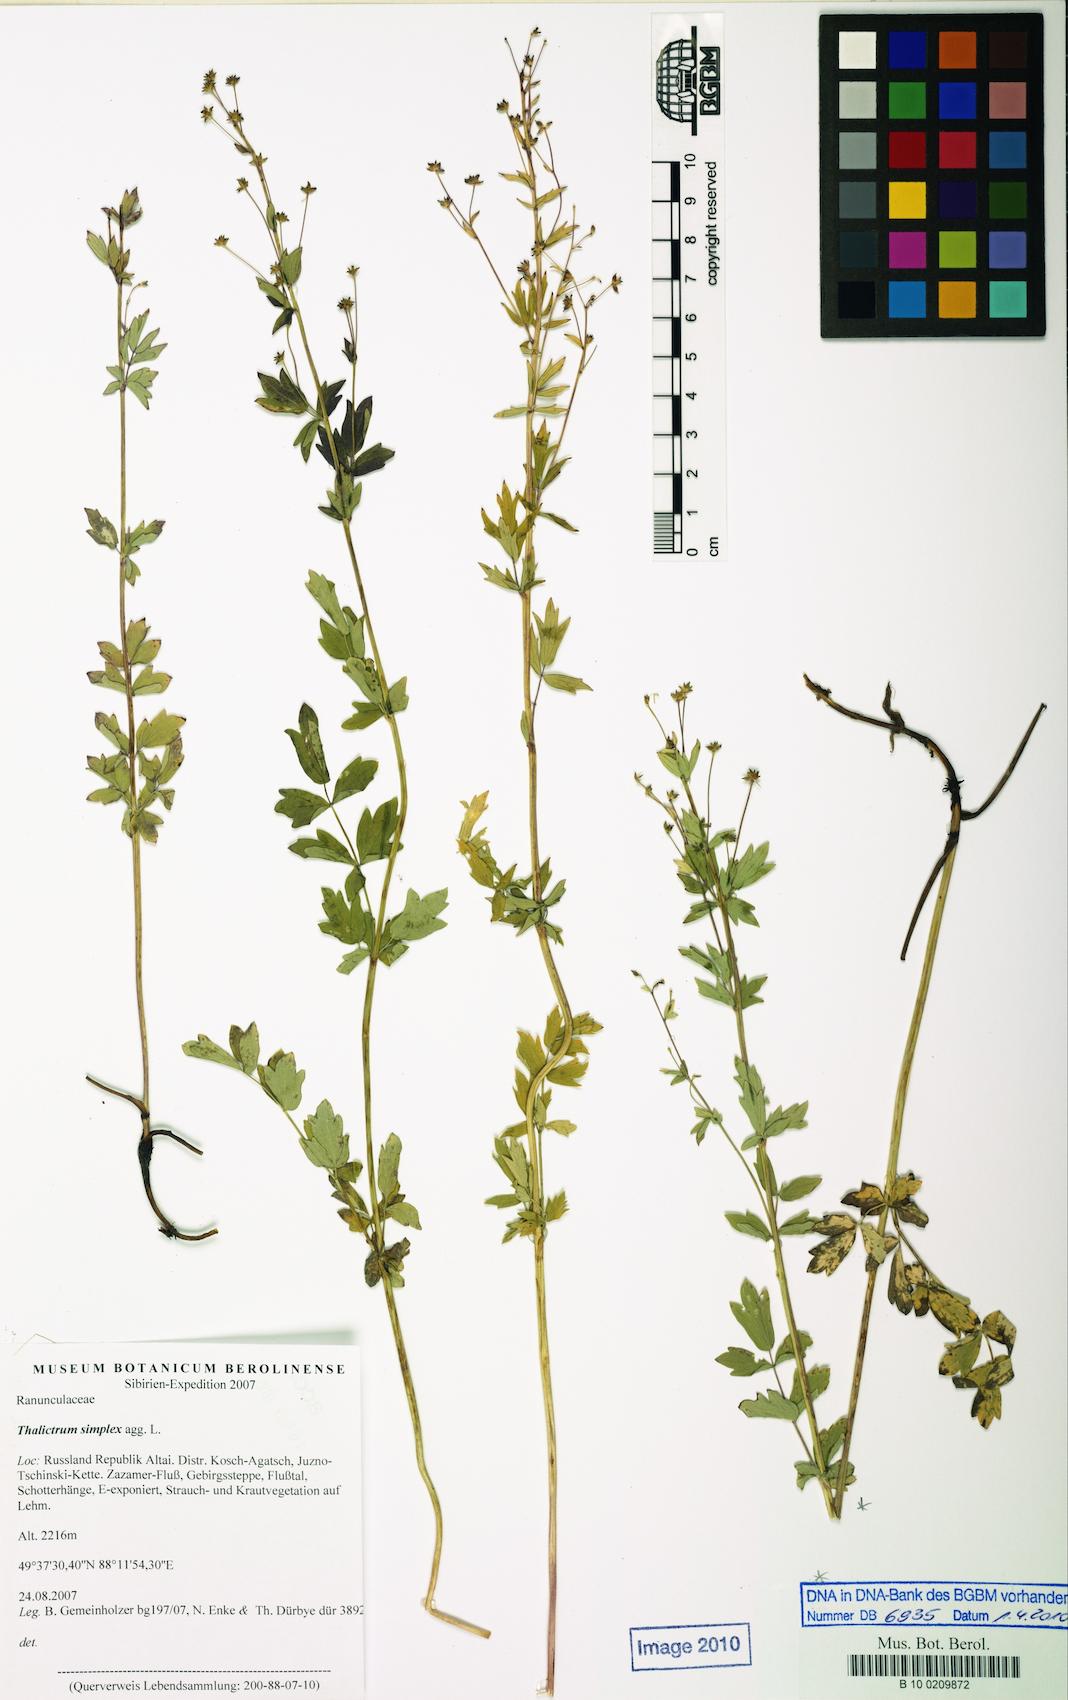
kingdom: Plantae
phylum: Tracheophyta
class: Magnoliopsida
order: Ranunculales
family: Ranunculaceae
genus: Thalictrum
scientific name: Thalictrum simplex
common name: Small meadow-rue
